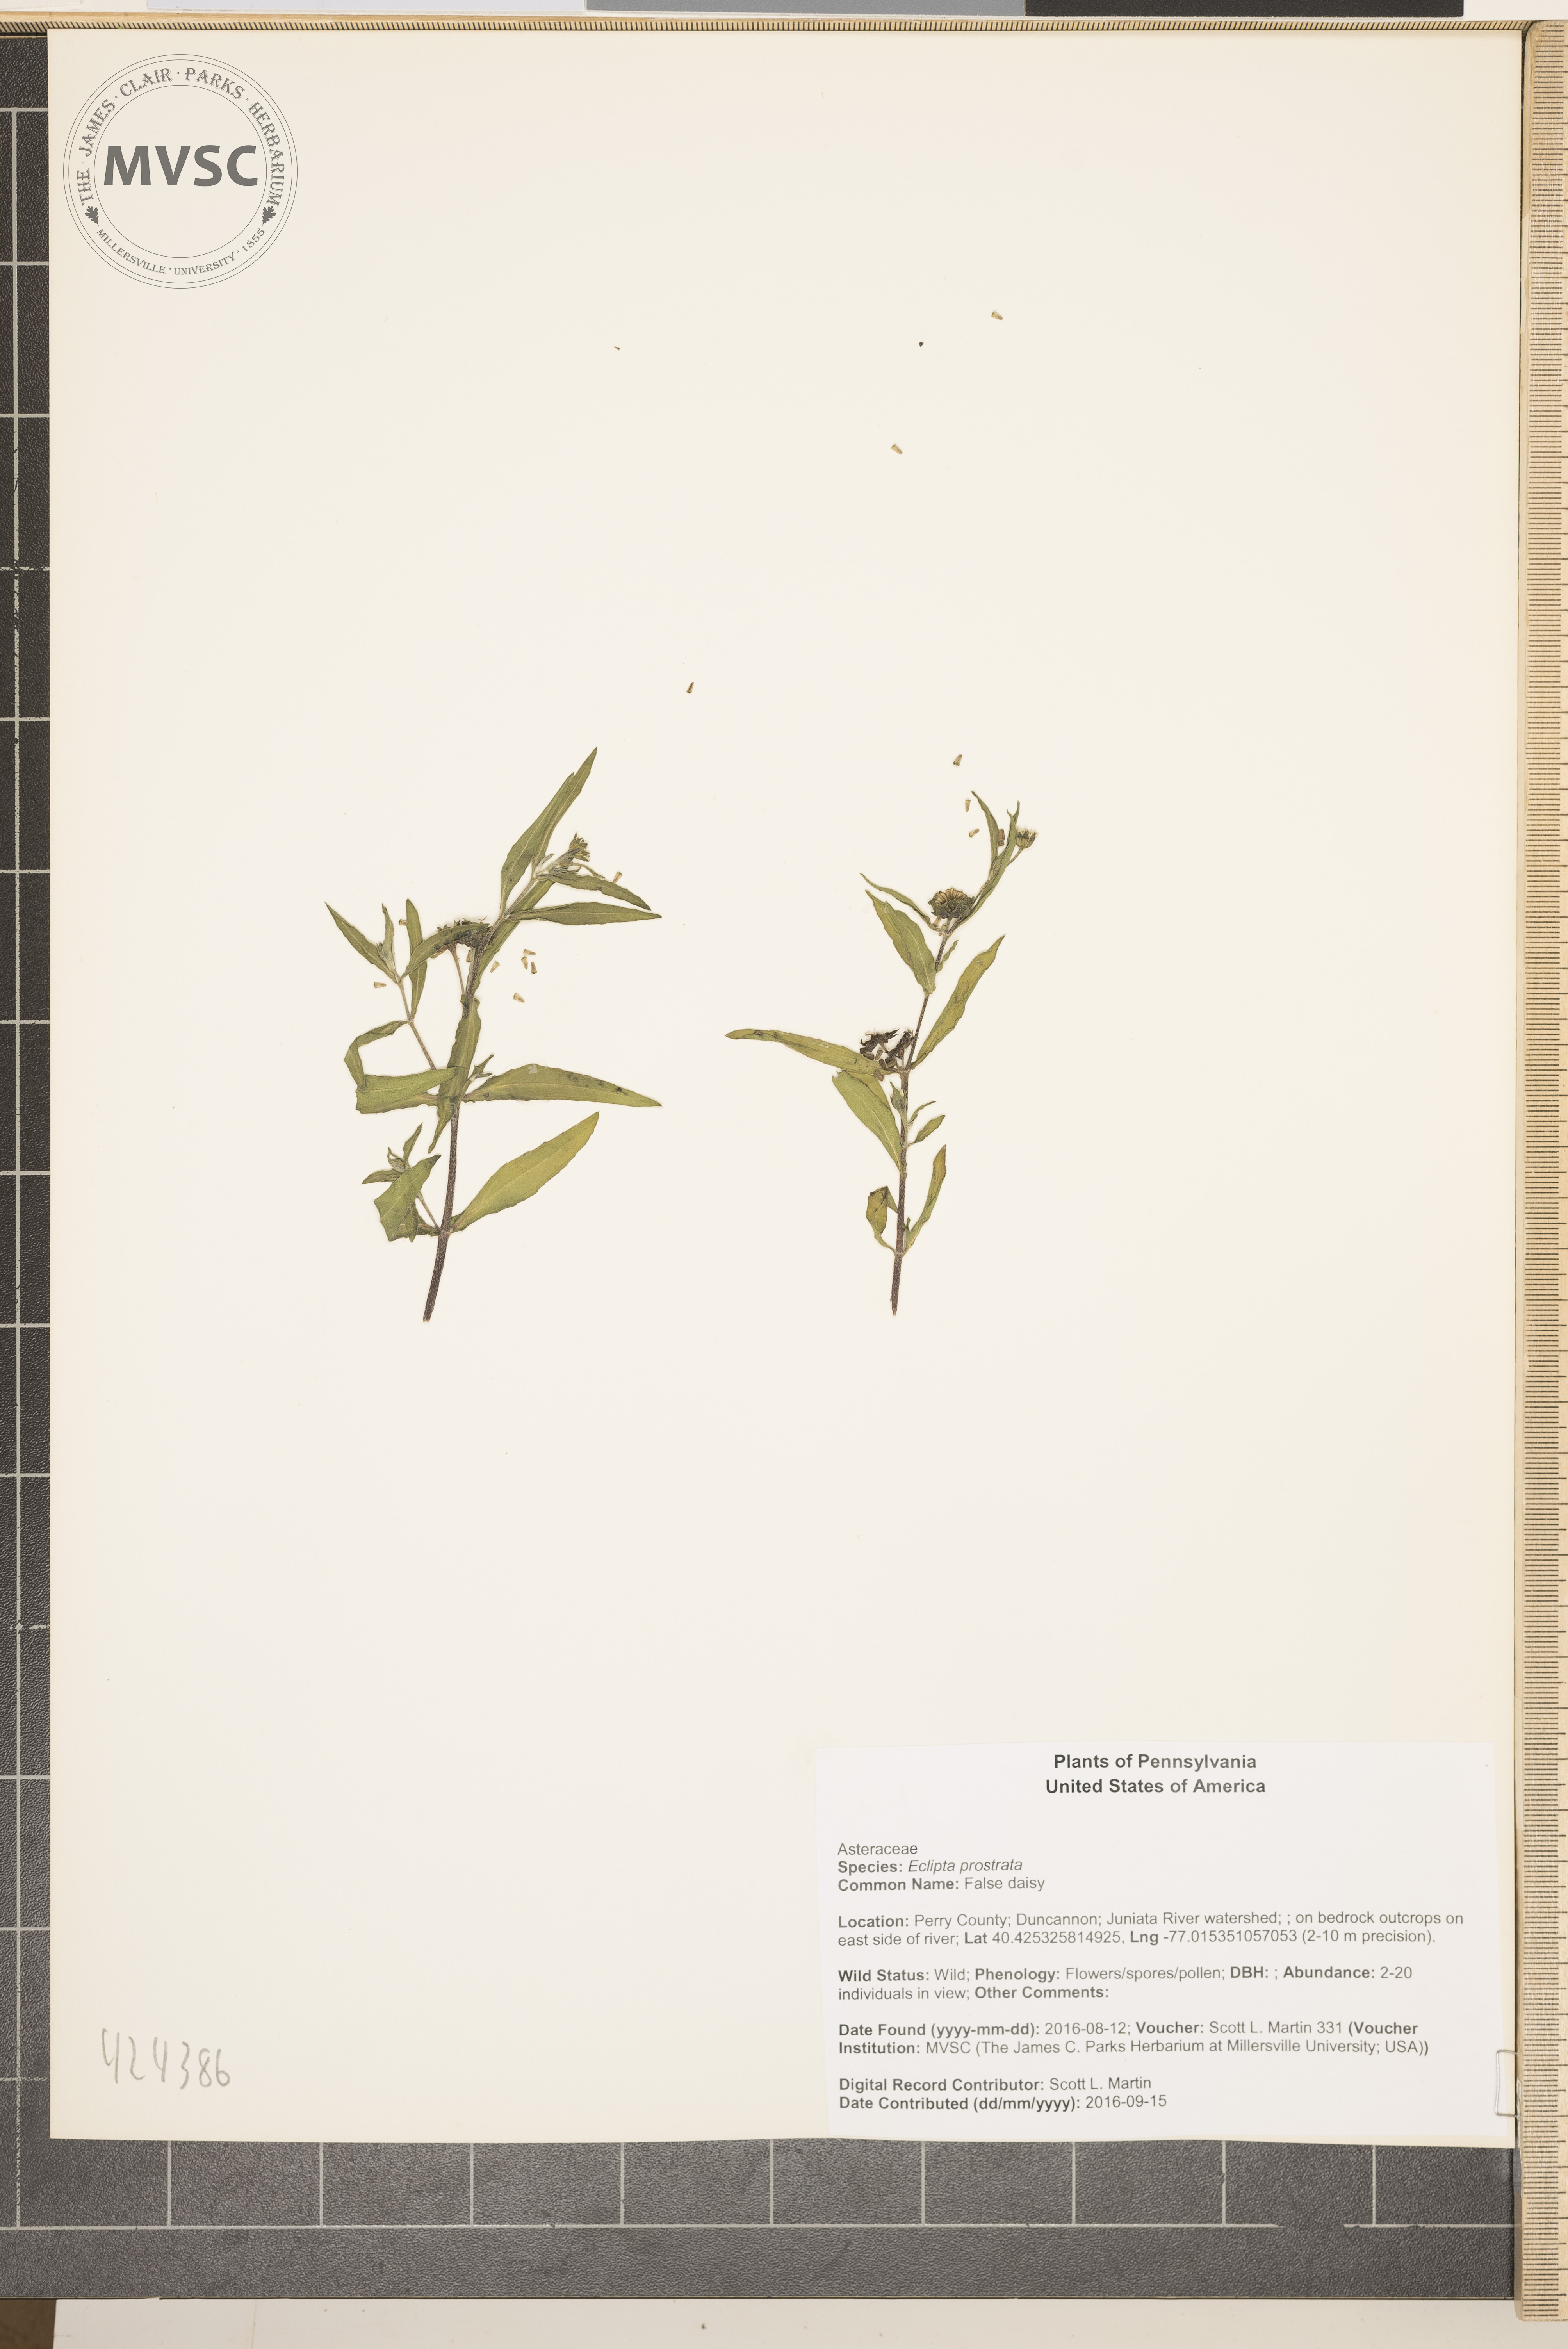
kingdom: Plantae
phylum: Tracheophyta
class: Magnoliopsida
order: Asterales
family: Asteraceae
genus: Eclipta
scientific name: Eclipta prostrata
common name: False daisy
